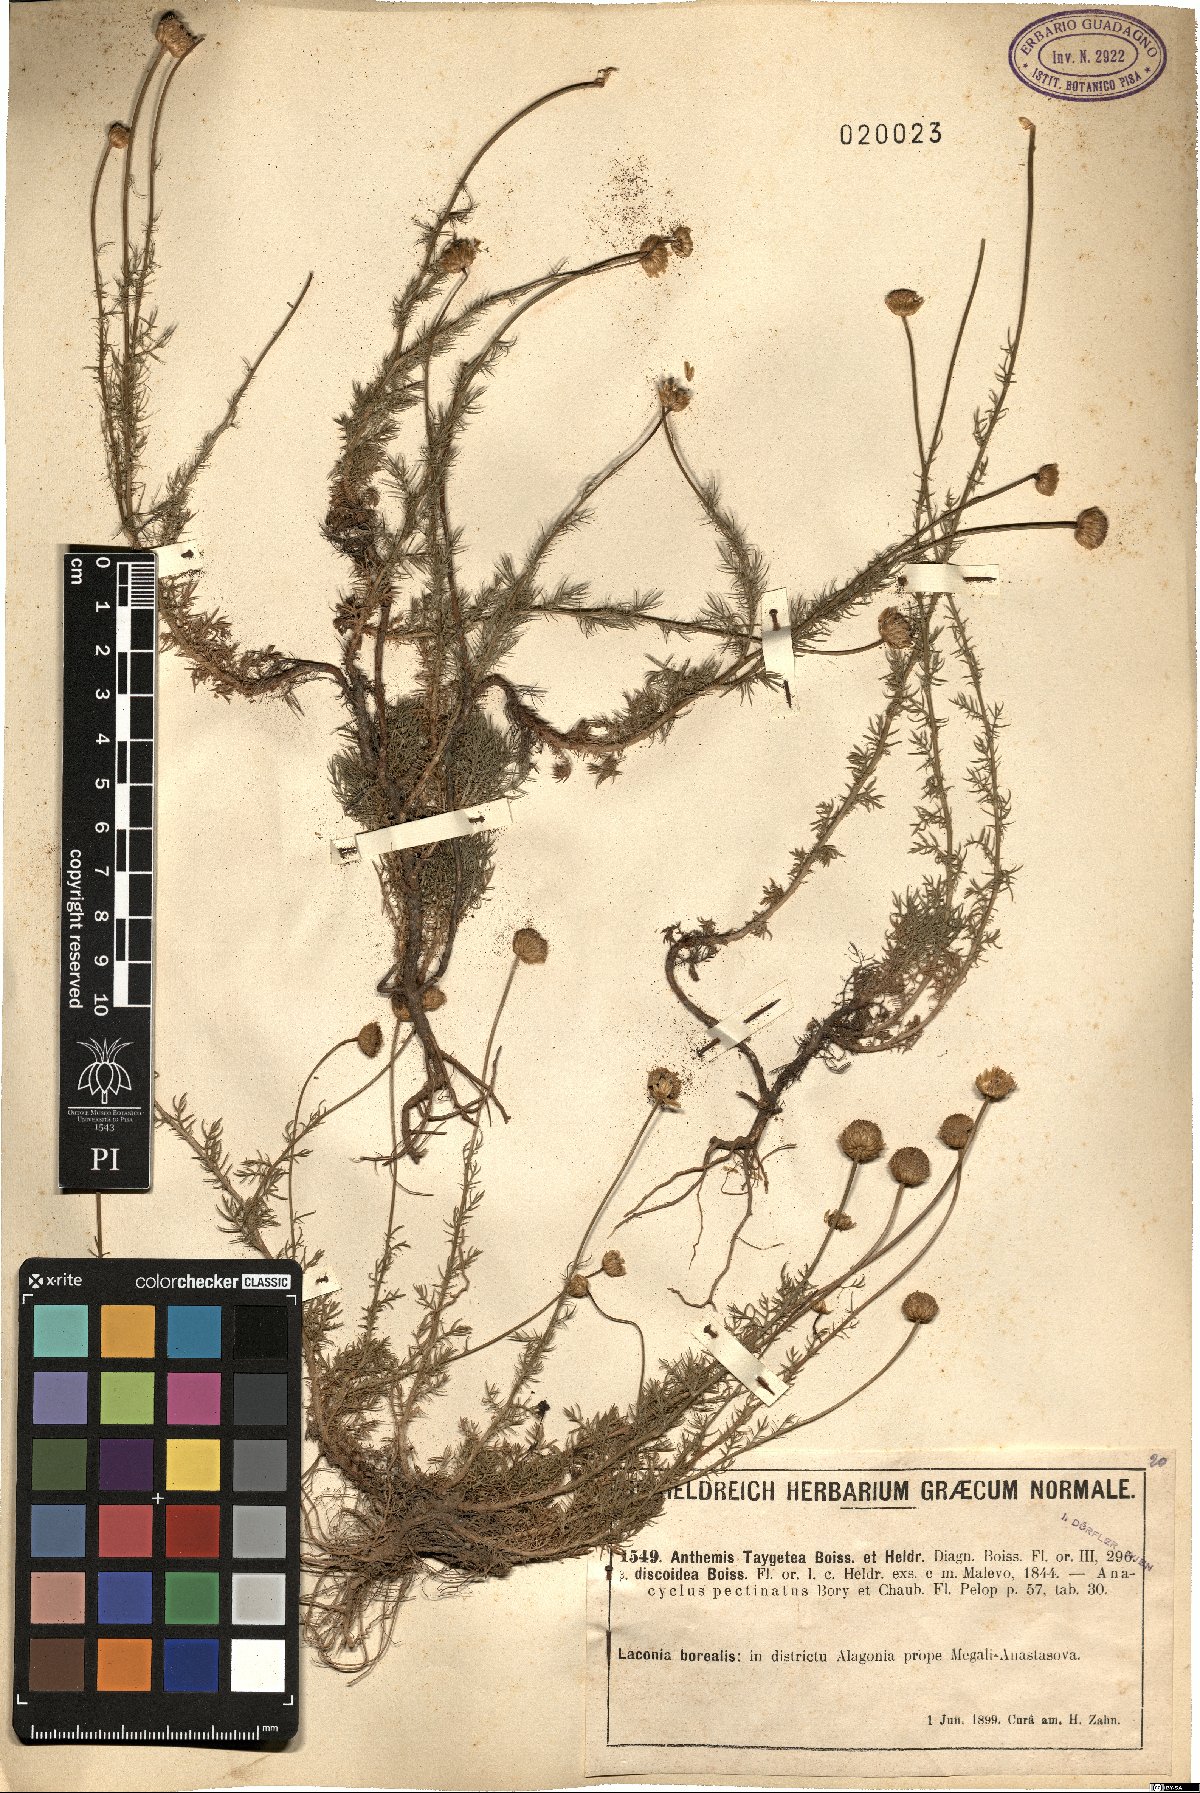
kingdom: Plantae
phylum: Tracheophyta
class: Magnoliopsida
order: Asterales
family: Asteraceae
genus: Anthemis
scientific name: Anthemis orientalis
